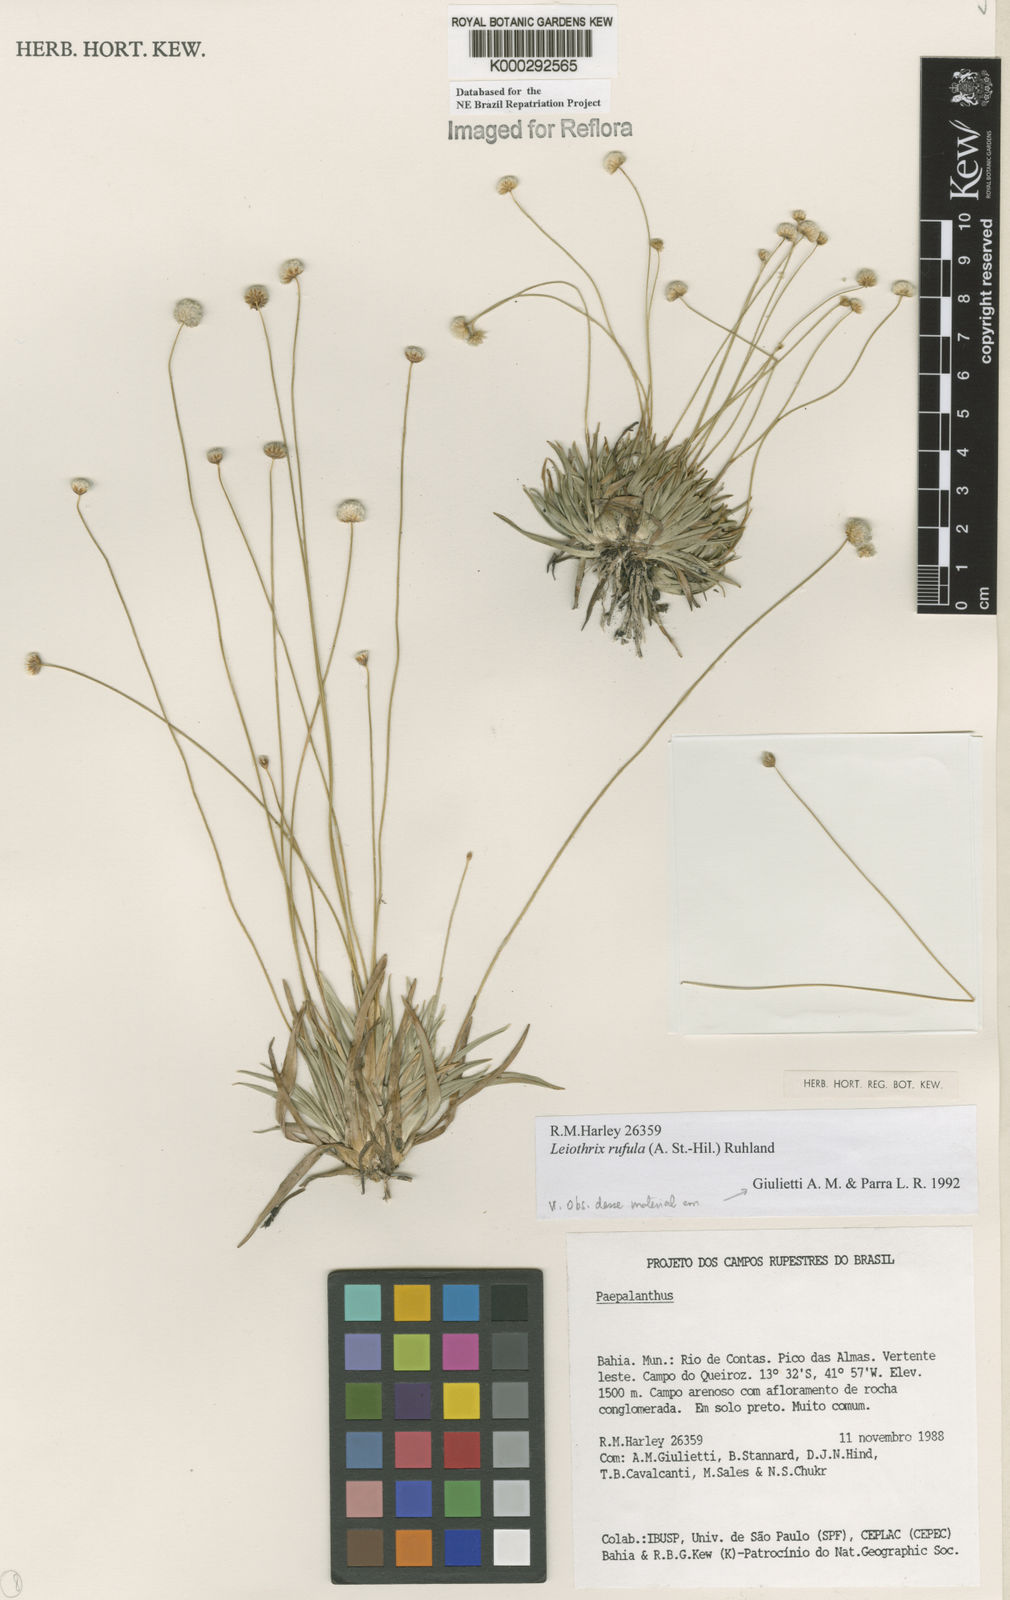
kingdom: Plantae
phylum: Tracheophyta
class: Liliopsida
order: Poales
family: Eriocaulaceae
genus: Leiothrix
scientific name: Leiothrix rufula
